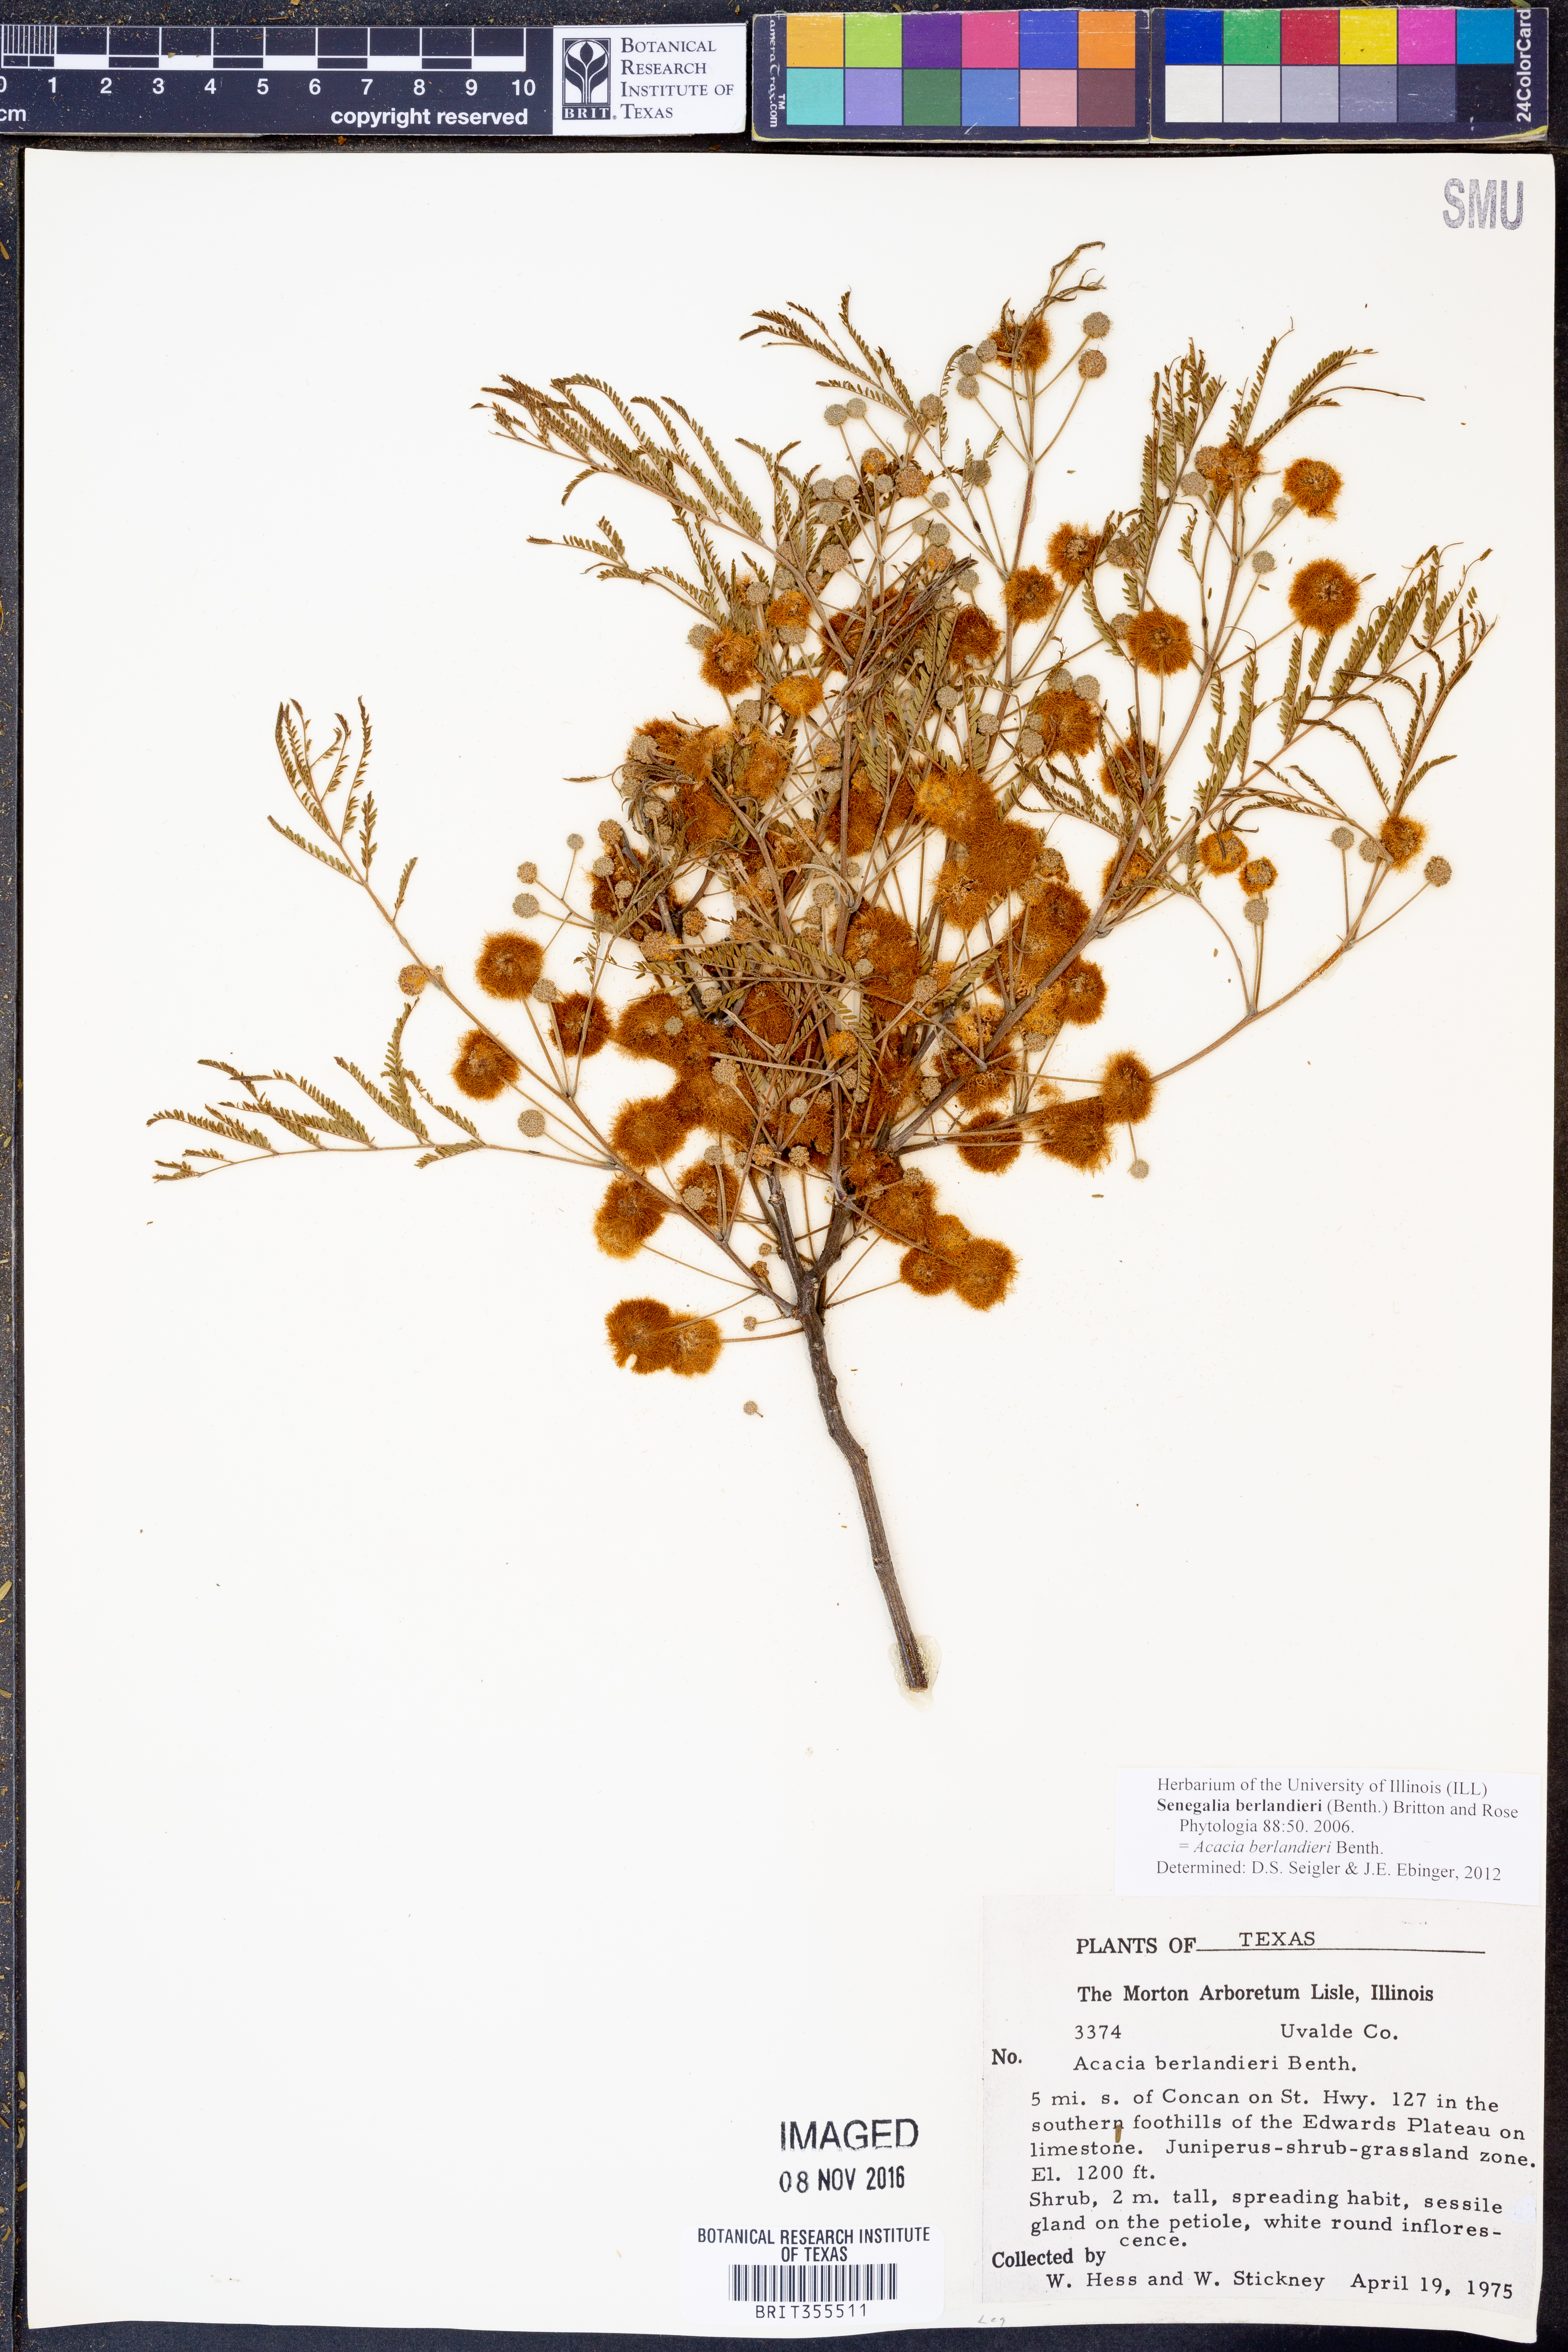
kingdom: Plantae
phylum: Tracheophyta
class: Magnoliopsida
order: Fabales
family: Fabaceae
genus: Senegalia
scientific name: Senegalia berlandieri
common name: Berlandier acacia
